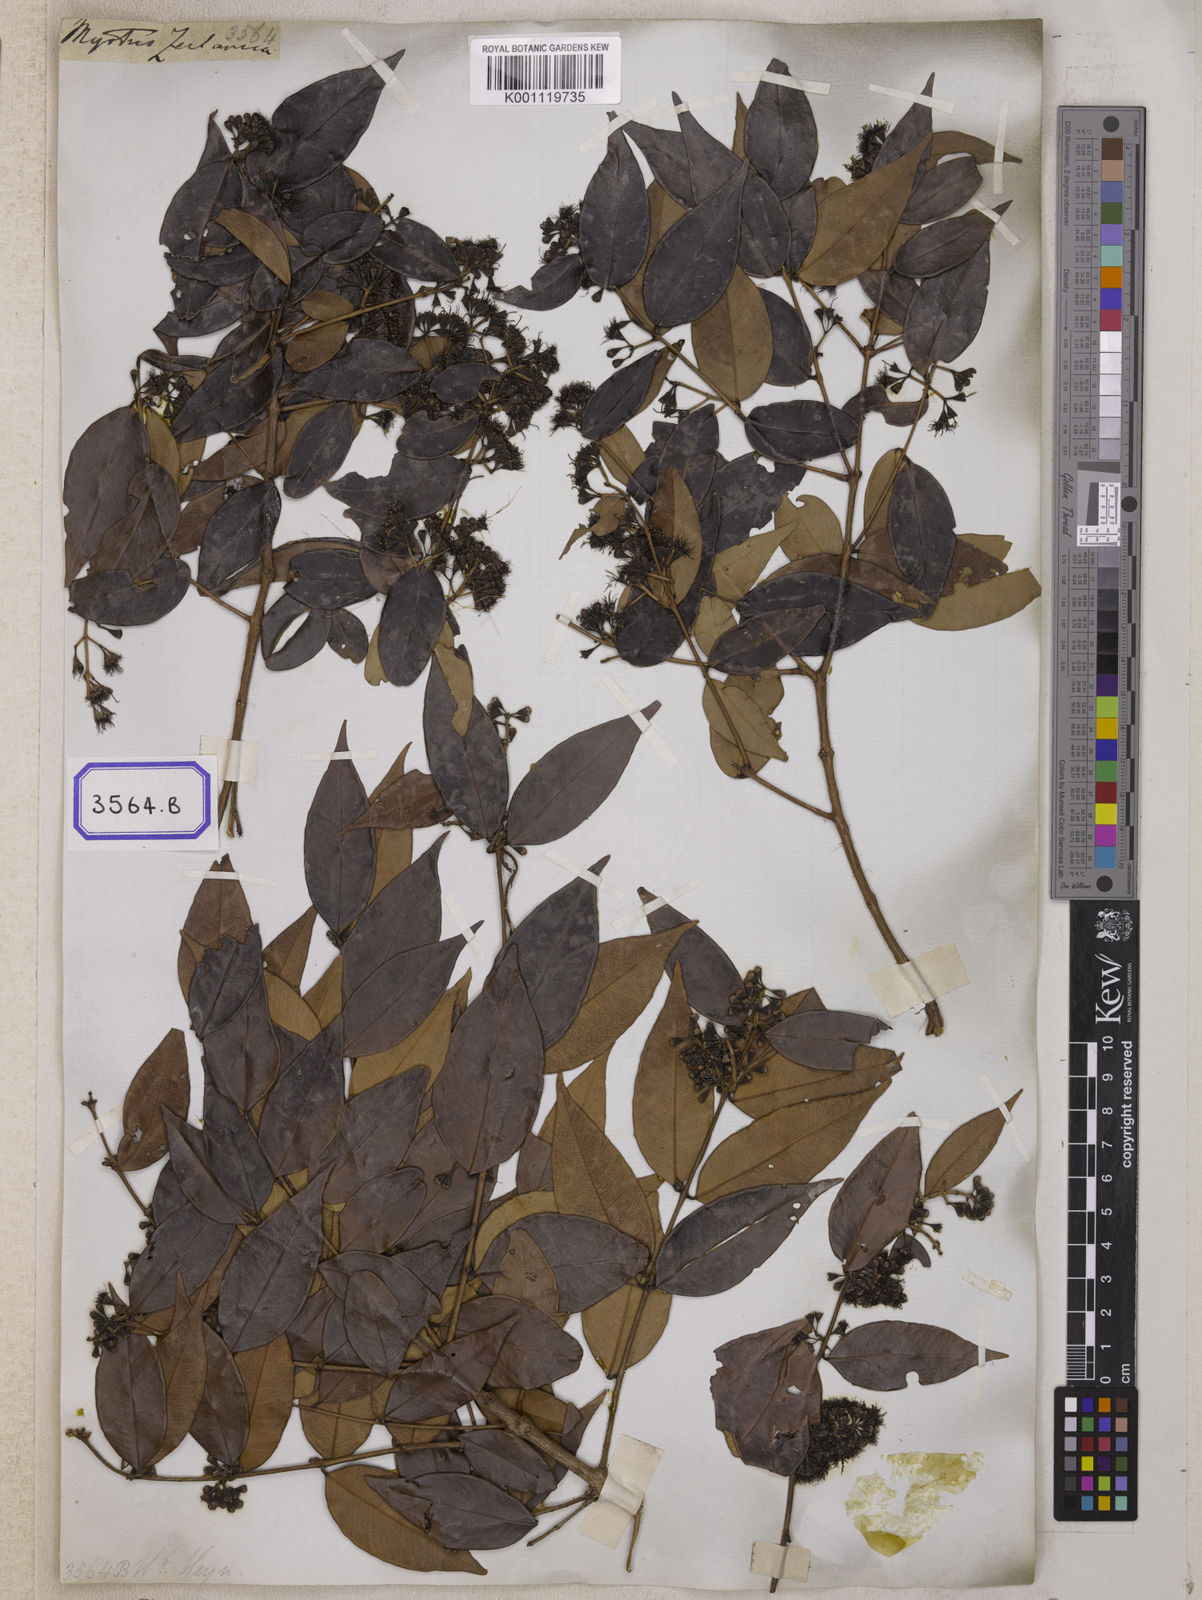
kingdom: Plantae
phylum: Tracheophyta
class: Magnoliopsida
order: Myrtales
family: Myrtaceae
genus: Syzygium
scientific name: Syzygium zeylanicum
